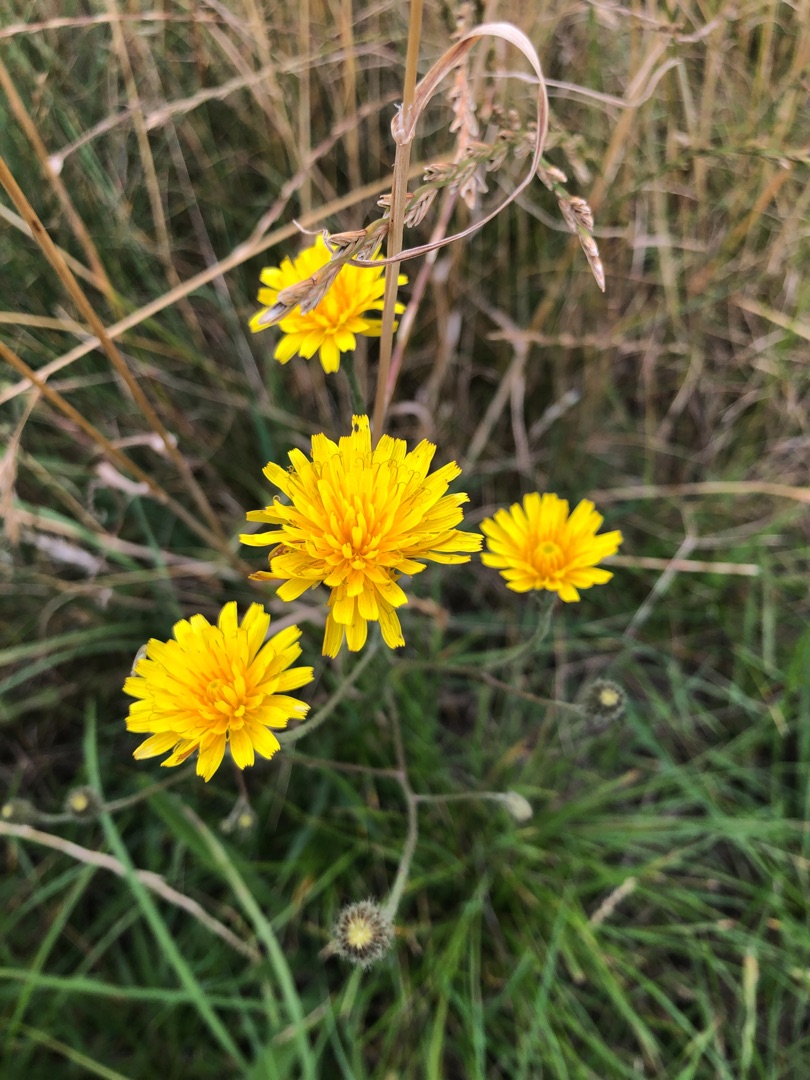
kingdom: Plantae
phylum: Tracheophyta
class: Magnoliopsida
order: Asterales
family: Asteraceae
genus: Scorzoneroides
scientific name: Scorzoneroides autumnalis
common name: Høst-borst
